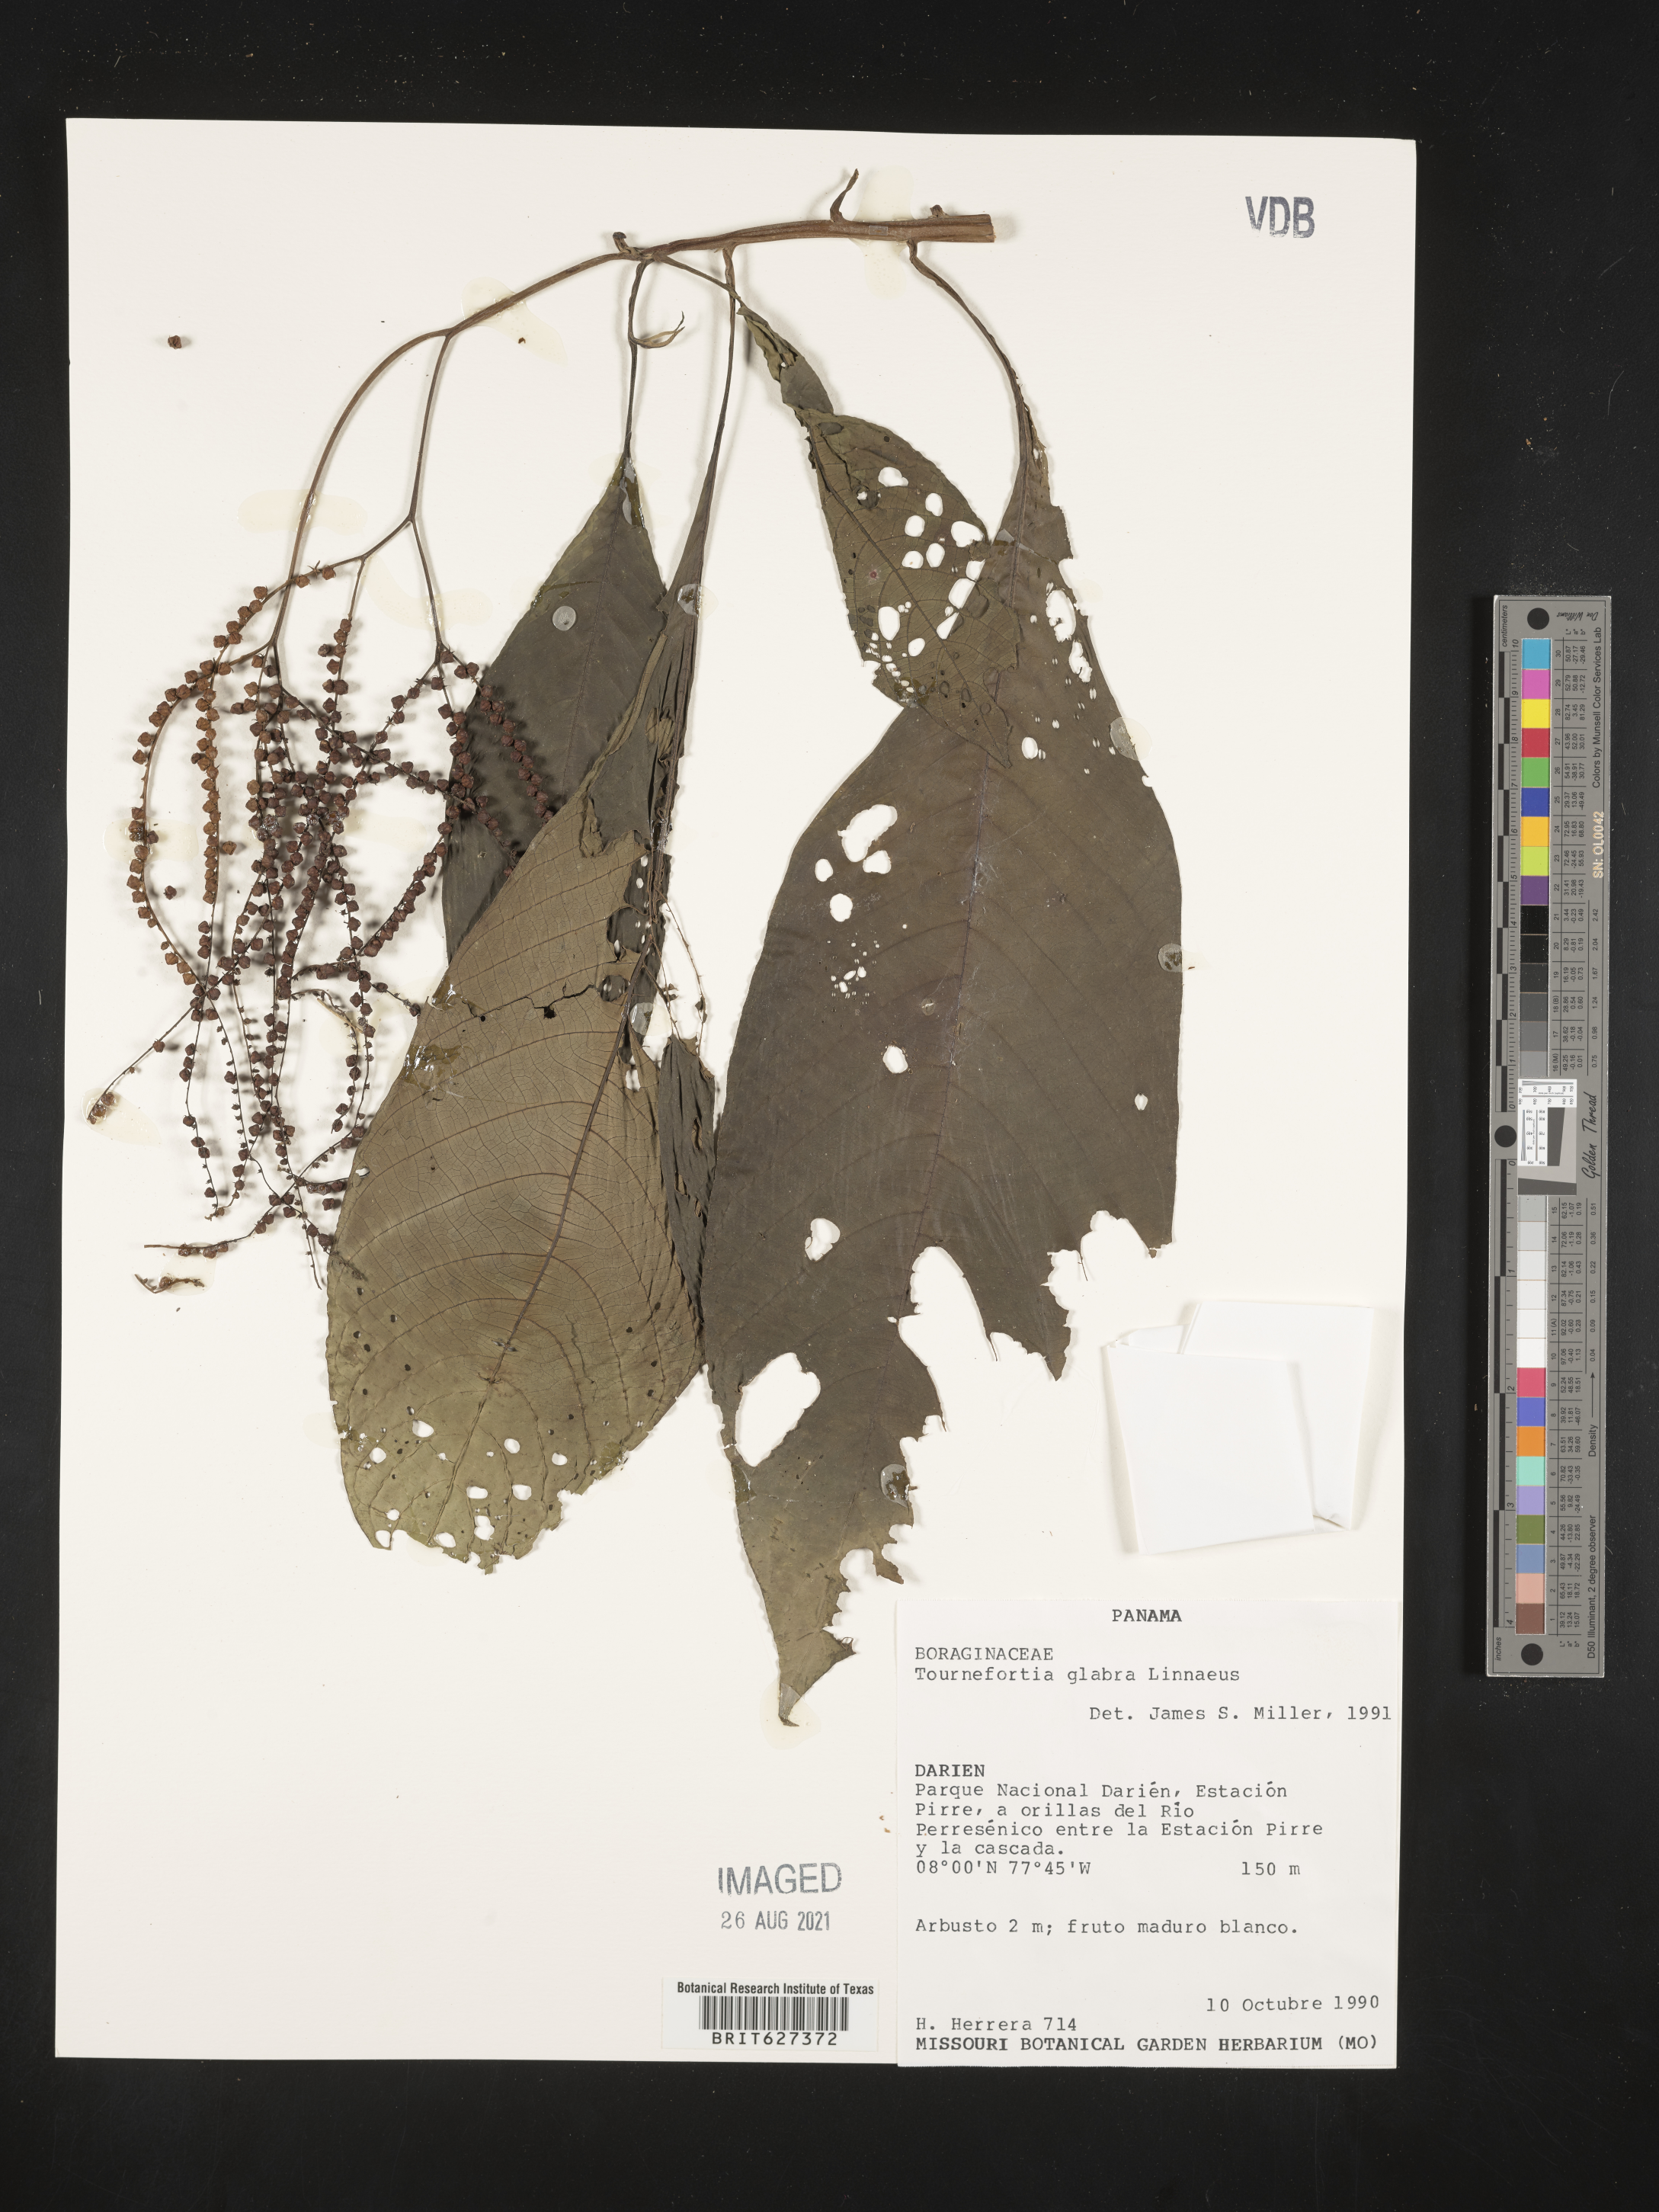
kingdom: Plantae
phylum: Tracheophyta
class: Magnoliopsida
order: Boraginales
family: Heliotropiaceae
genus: Heliotropium
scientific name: Heliotropium laevigatum
